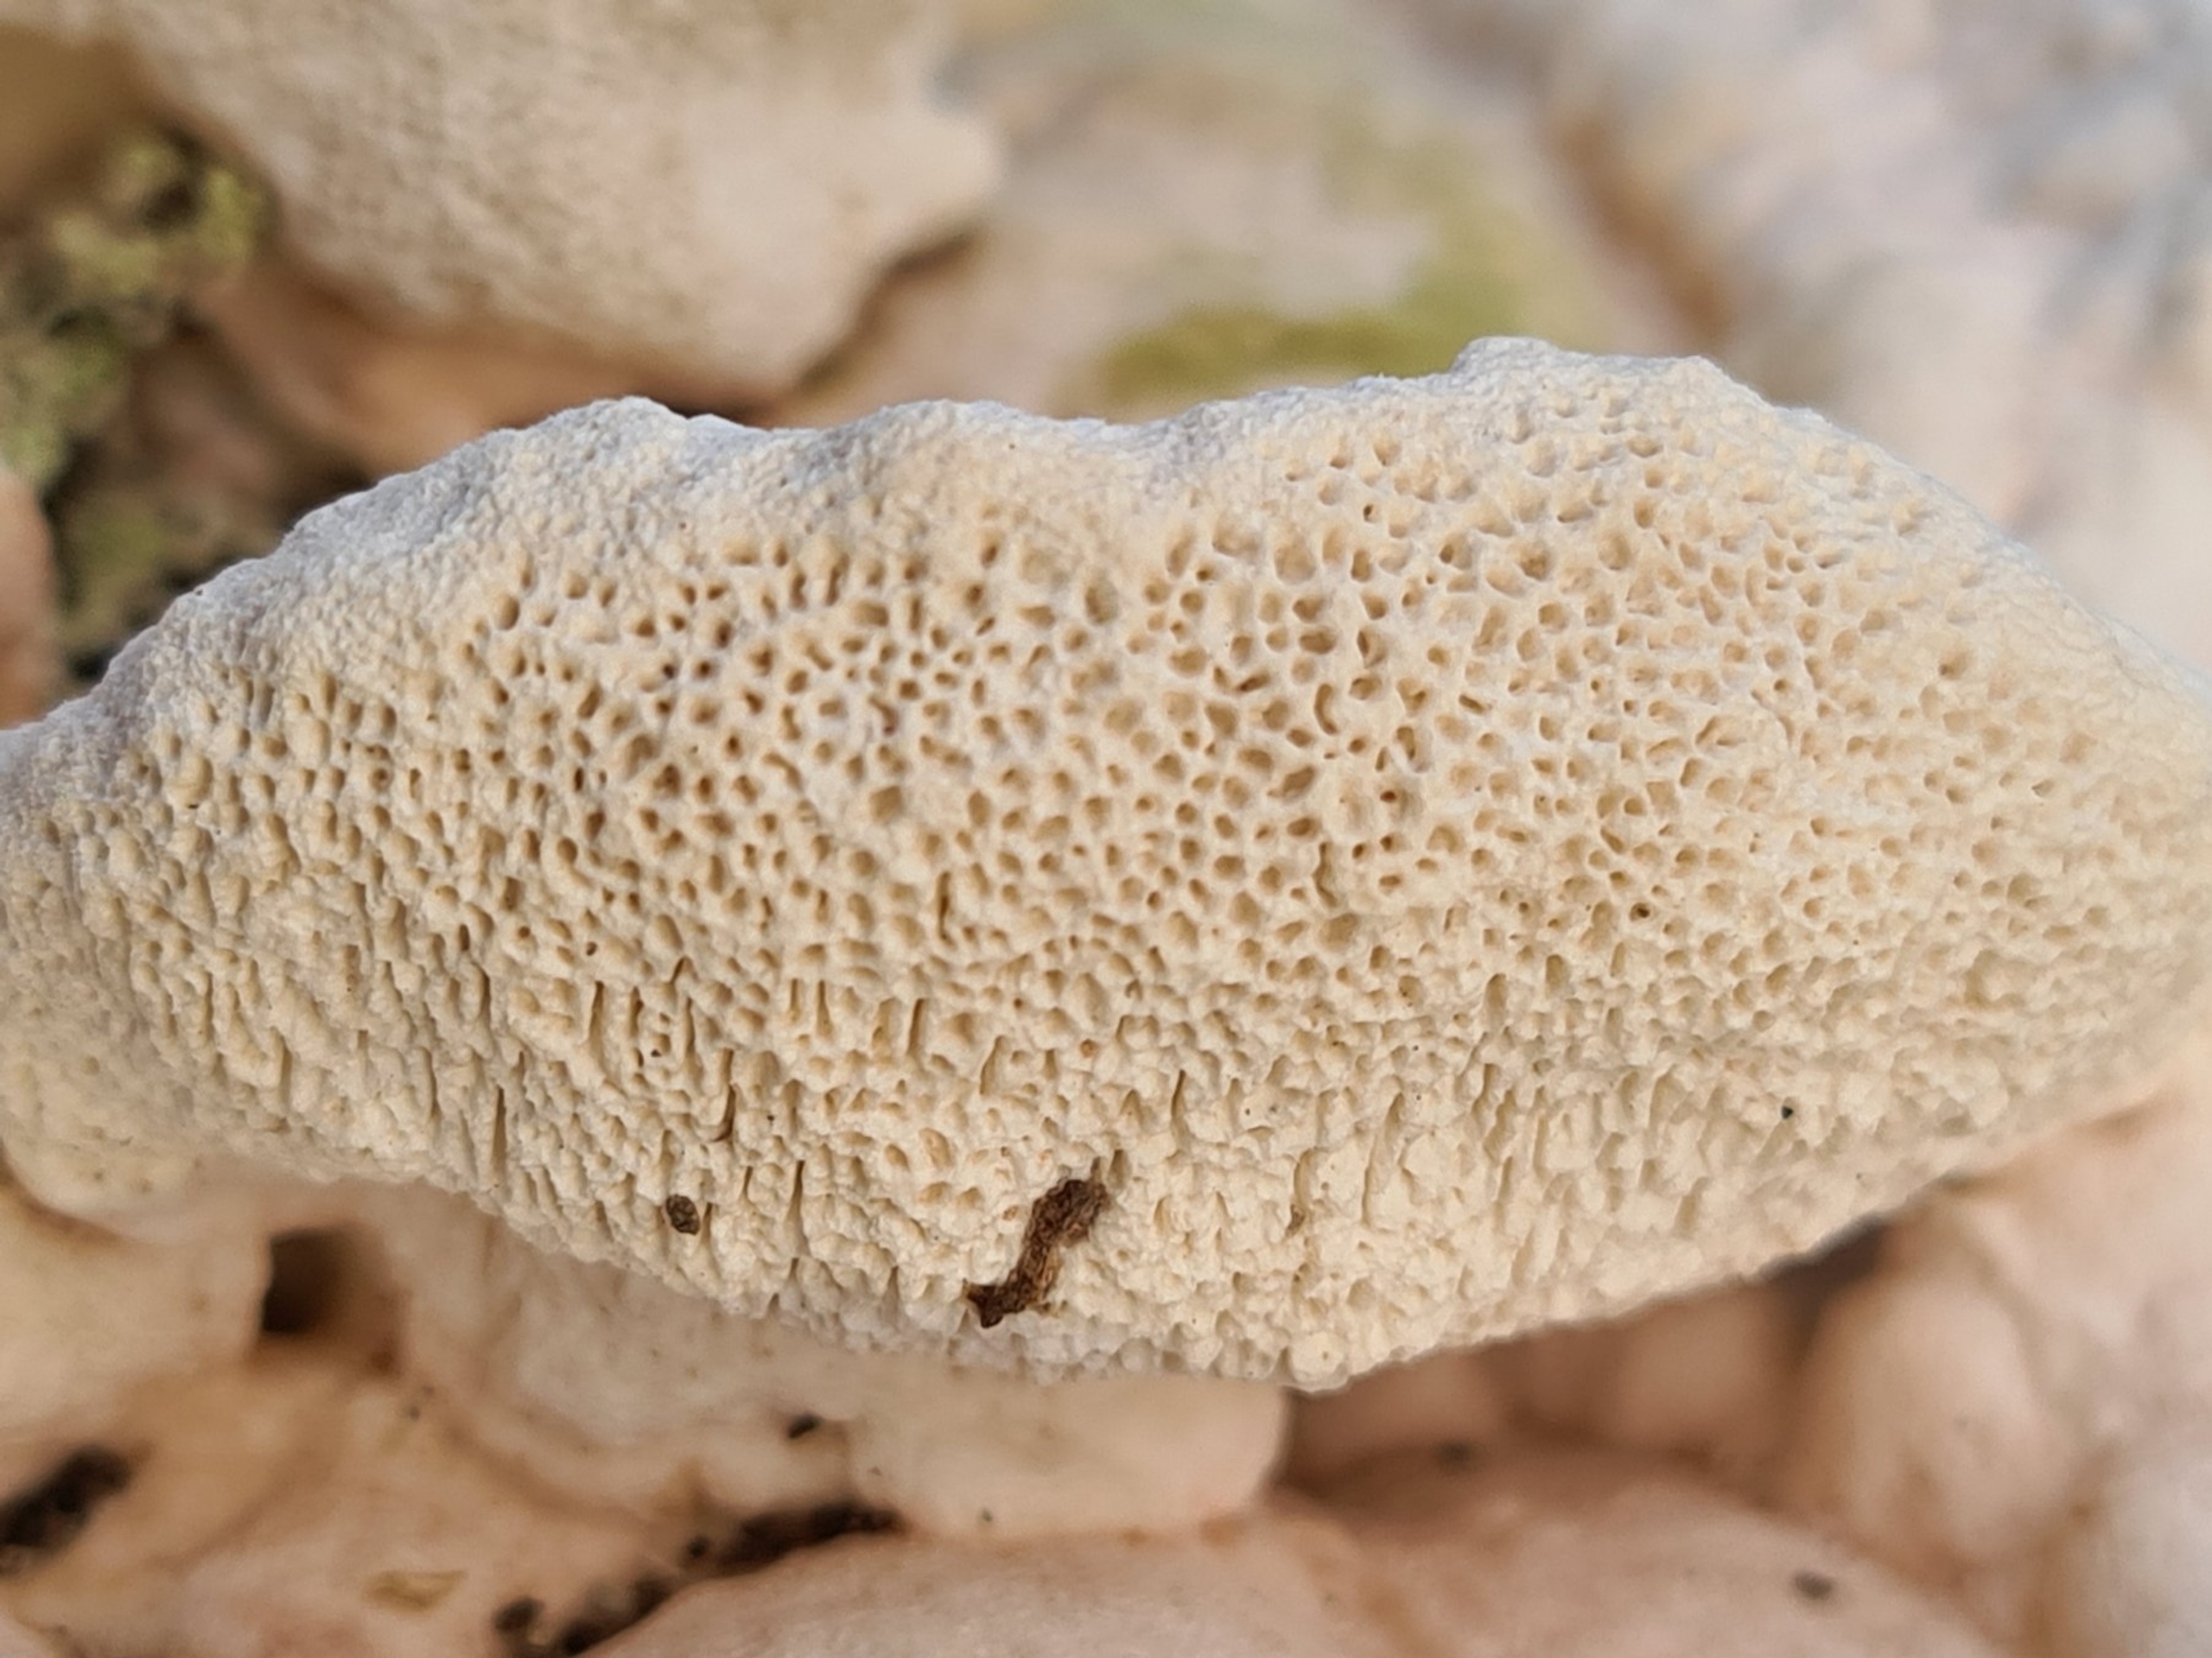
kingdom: Fungi
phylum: Basidiomycota
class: Agaricomycetes
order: Polyporales
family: Polyporaceae
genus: Trametes
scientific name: Trametes gibbosa
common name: Puklet læderporesvamp
